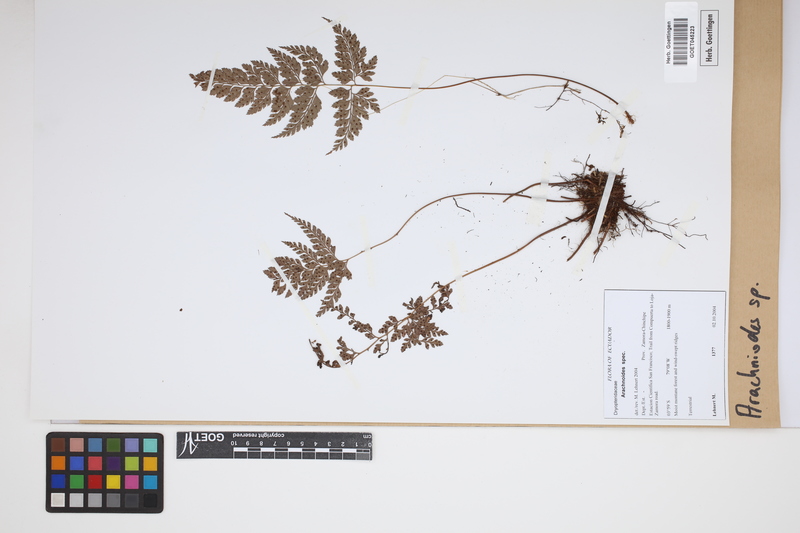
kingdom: Plantae
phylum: Tracheophyta
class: Polypodiopsida
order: Polypodiales
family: Dryopteridaceae
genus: Arachniodes
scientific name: Arachniodes
